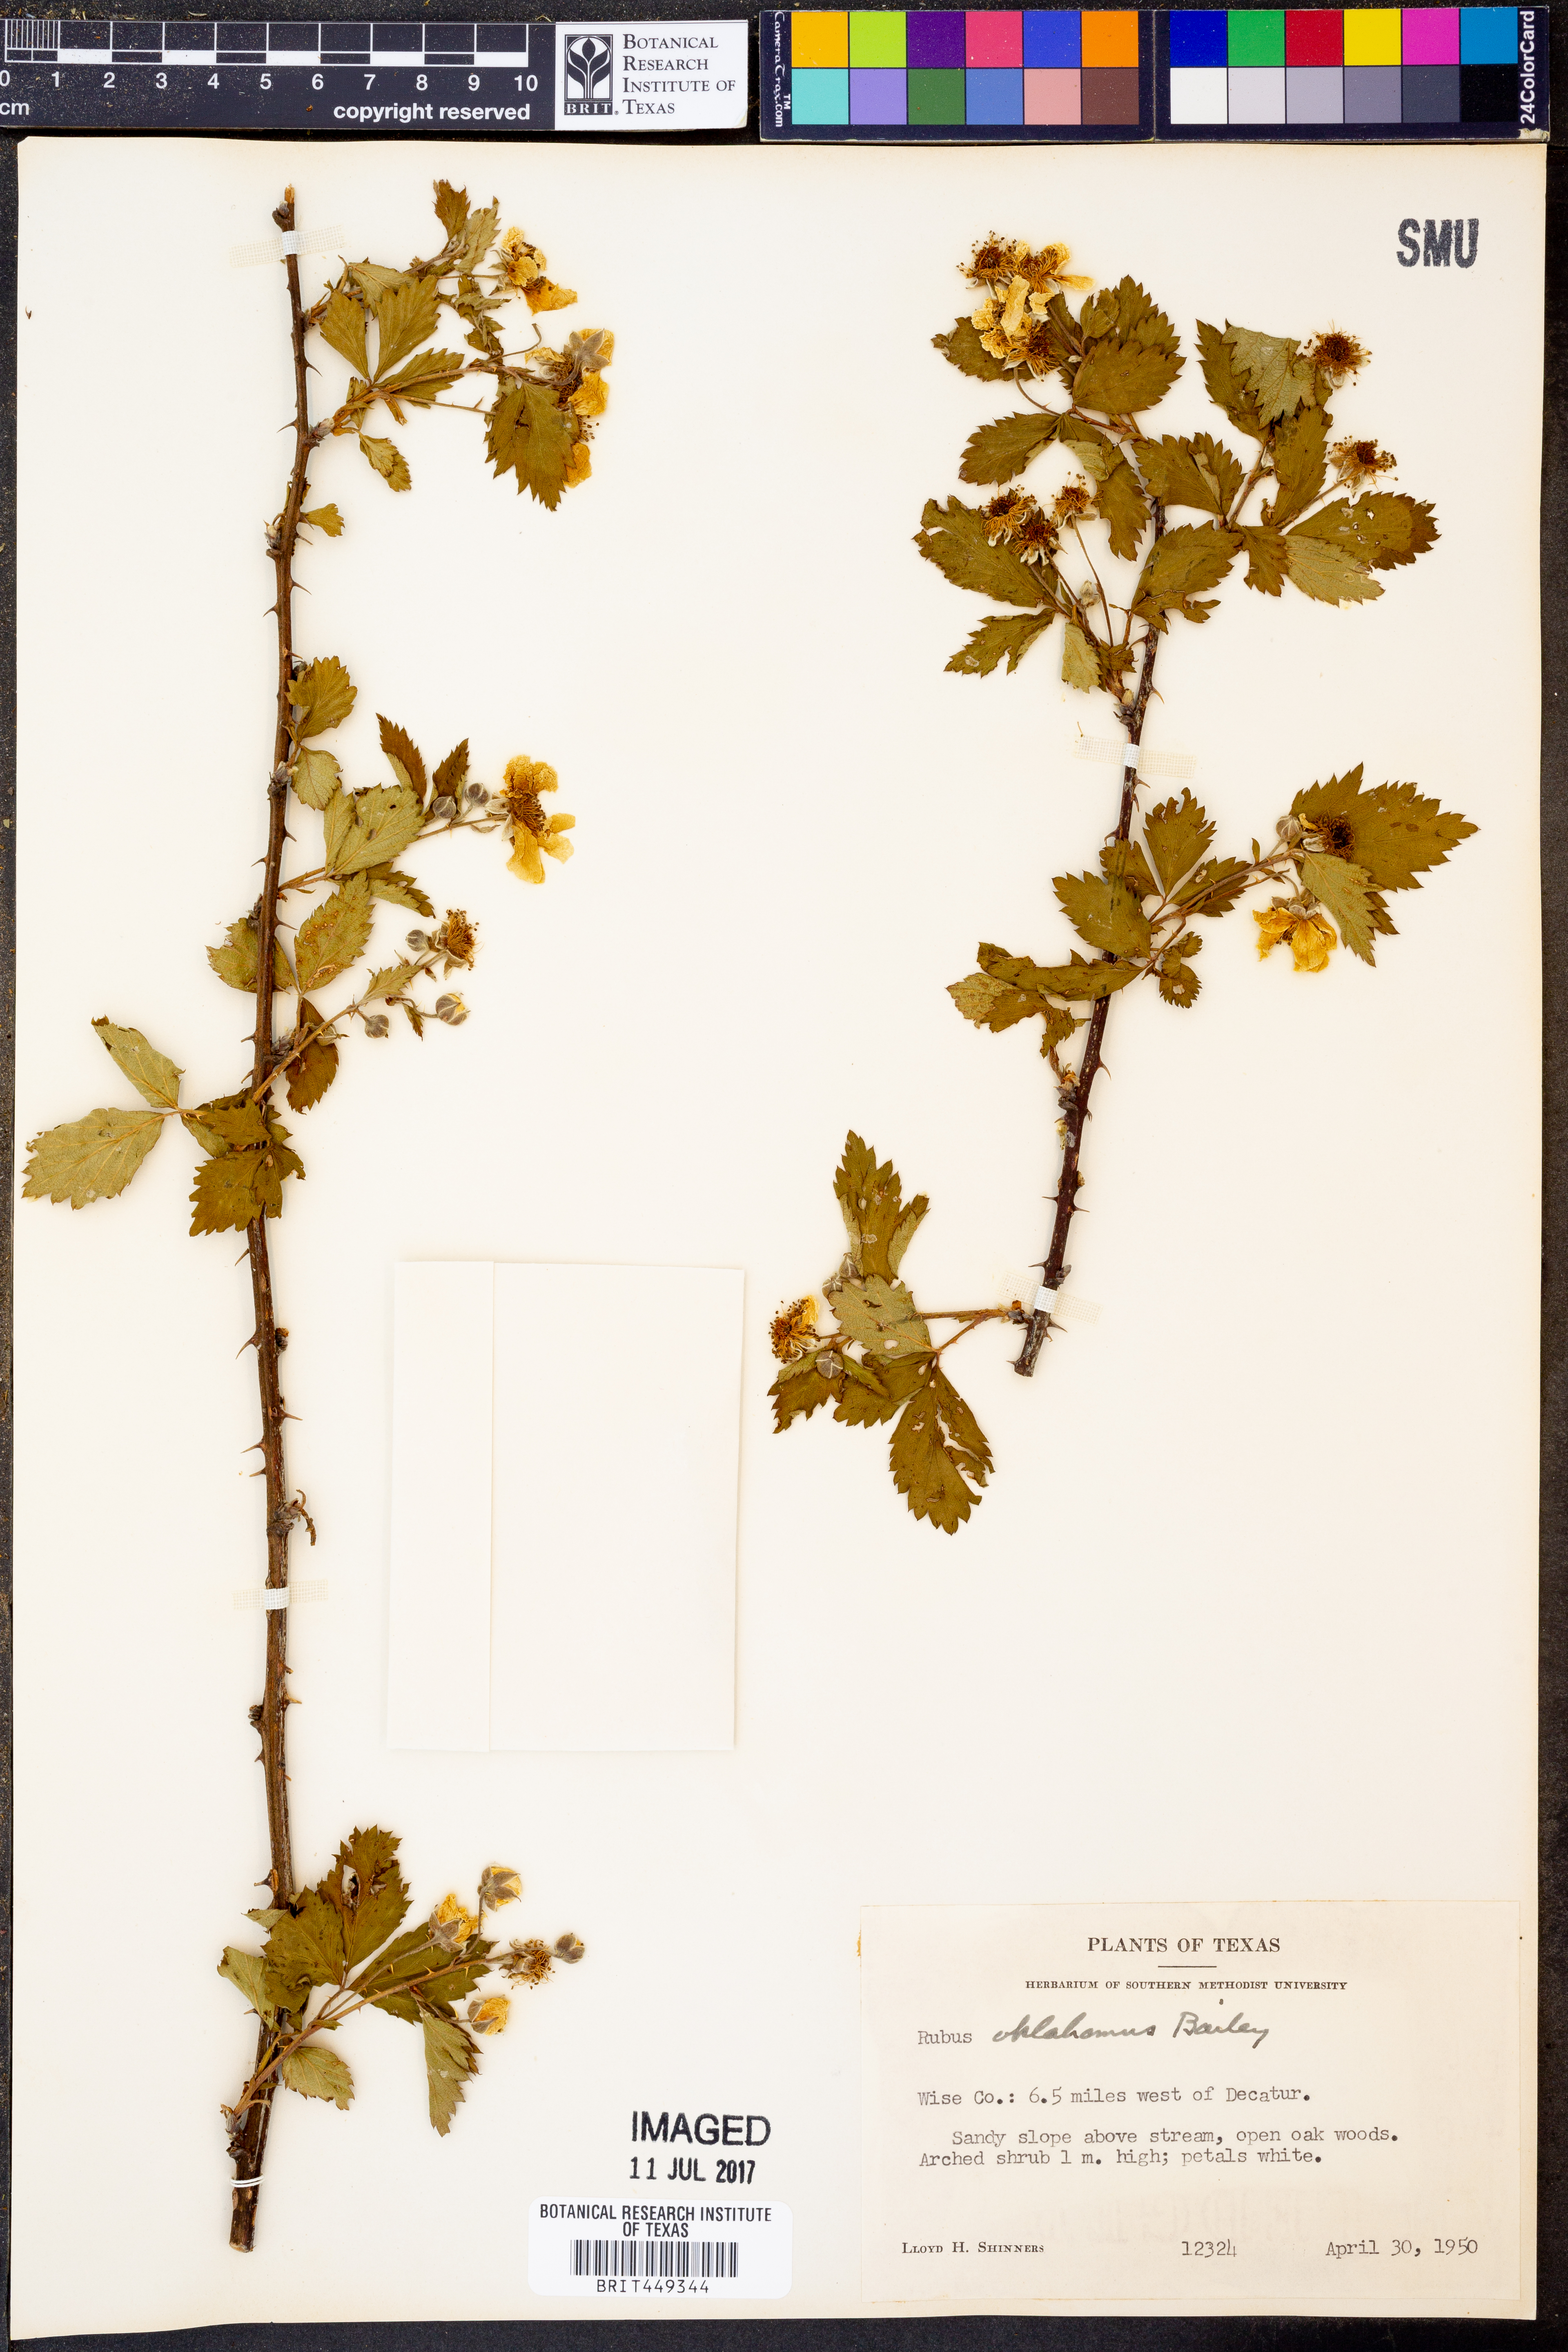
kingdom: Plantae
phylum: Tracheophyta
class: Magnoliopsida
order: Rosales
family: Rosaceae
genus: Rubus
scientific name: Rubus oklahomus
